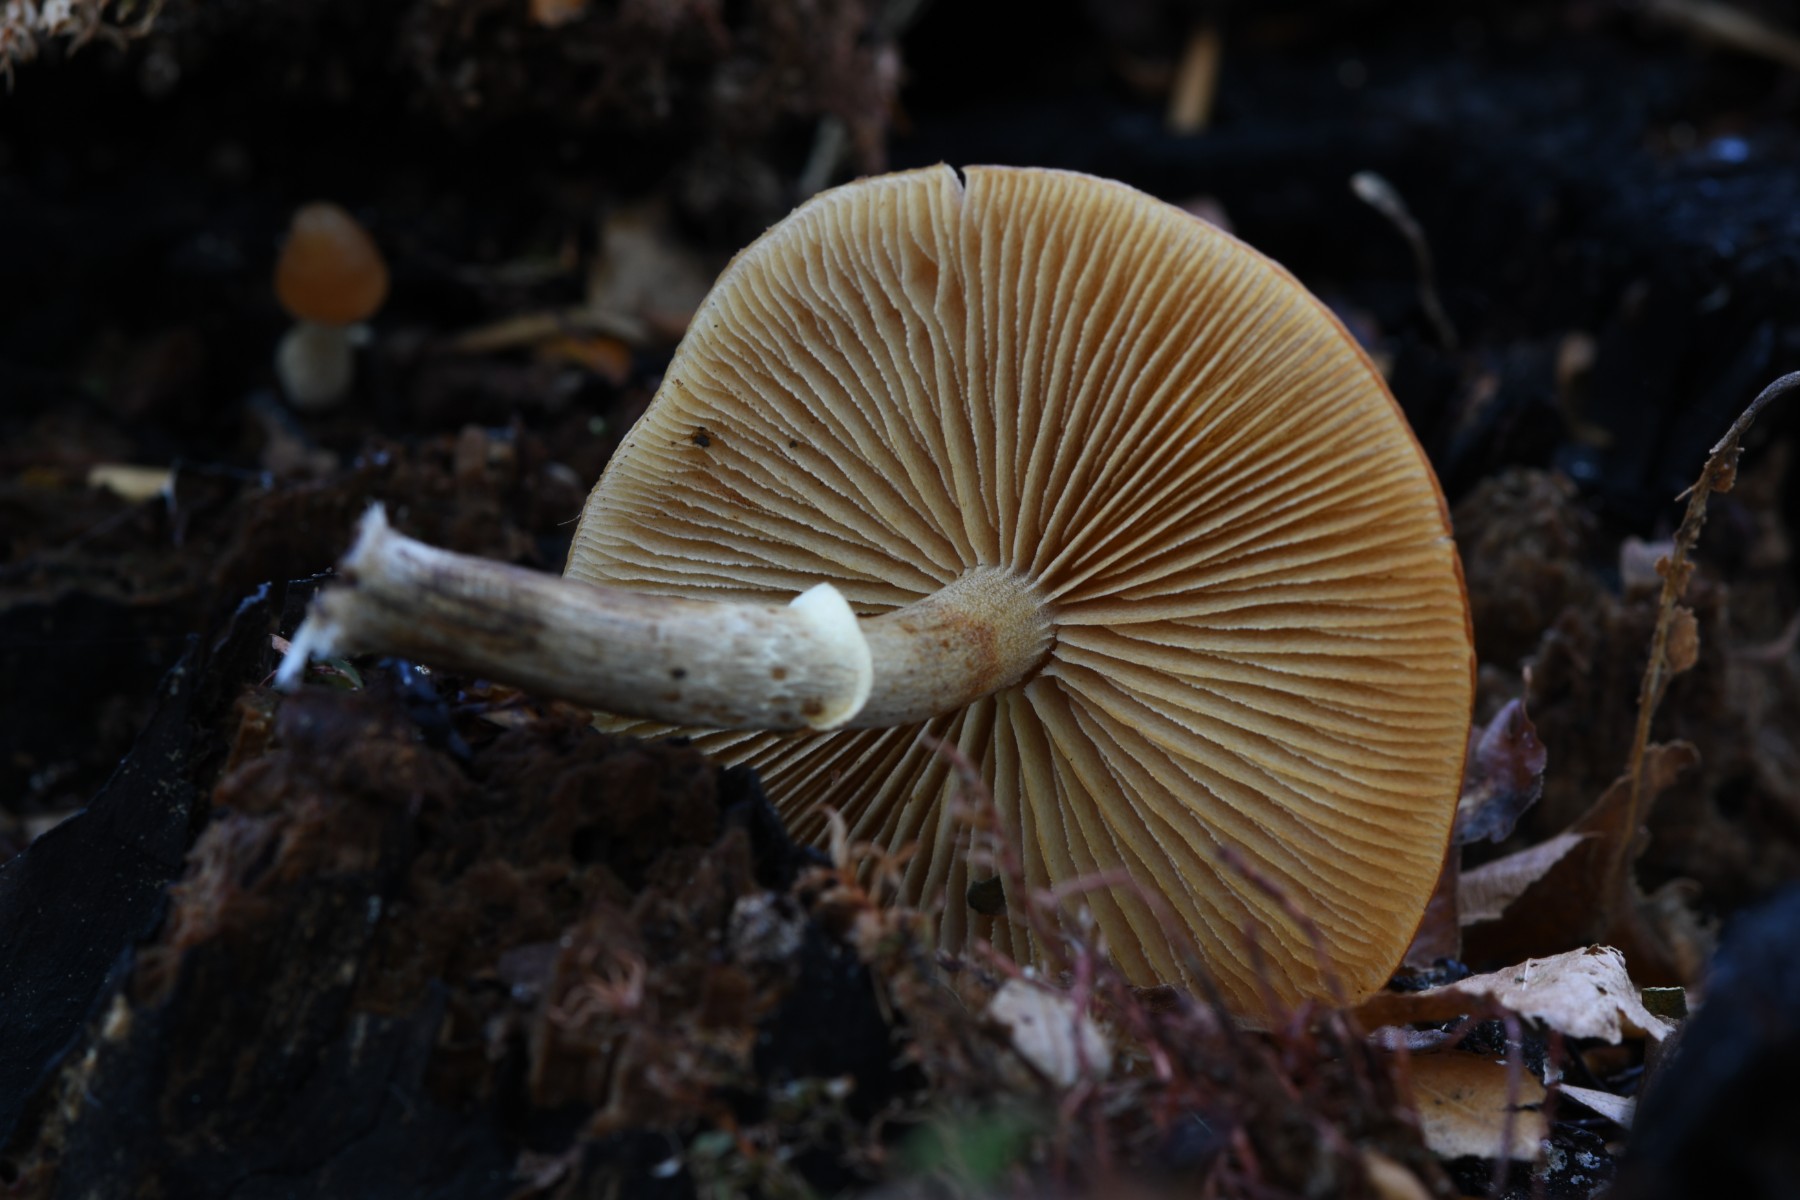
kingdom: Fungi
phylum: Basidiomycota
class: Agaricomycetes
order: Agaricales
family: Hymenogastraceae
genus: Galerina
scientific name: Galerina marginata
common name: randbæltet hjelmhat
